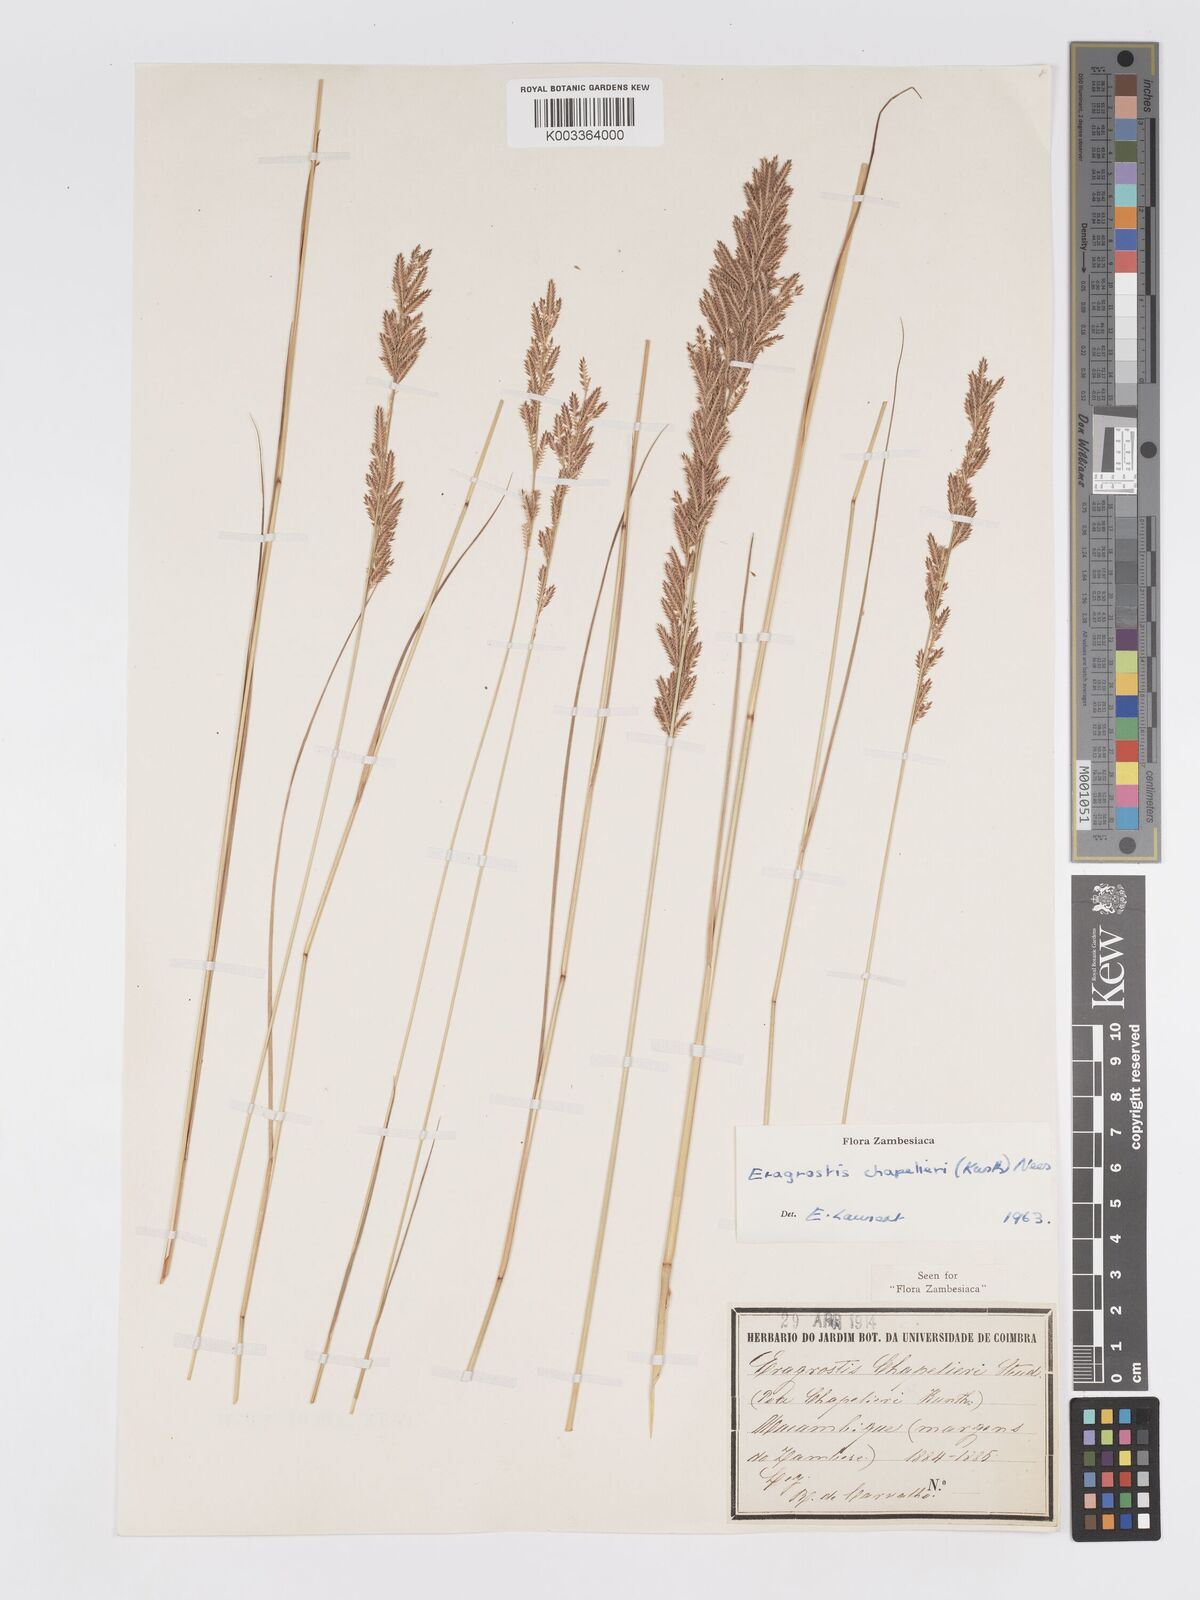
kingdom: Plantae
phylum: Tracheophyta
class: Liliopsida
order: Poales
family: Poaceae
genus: Eragrostis
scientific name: Eragrostis chapelieri
